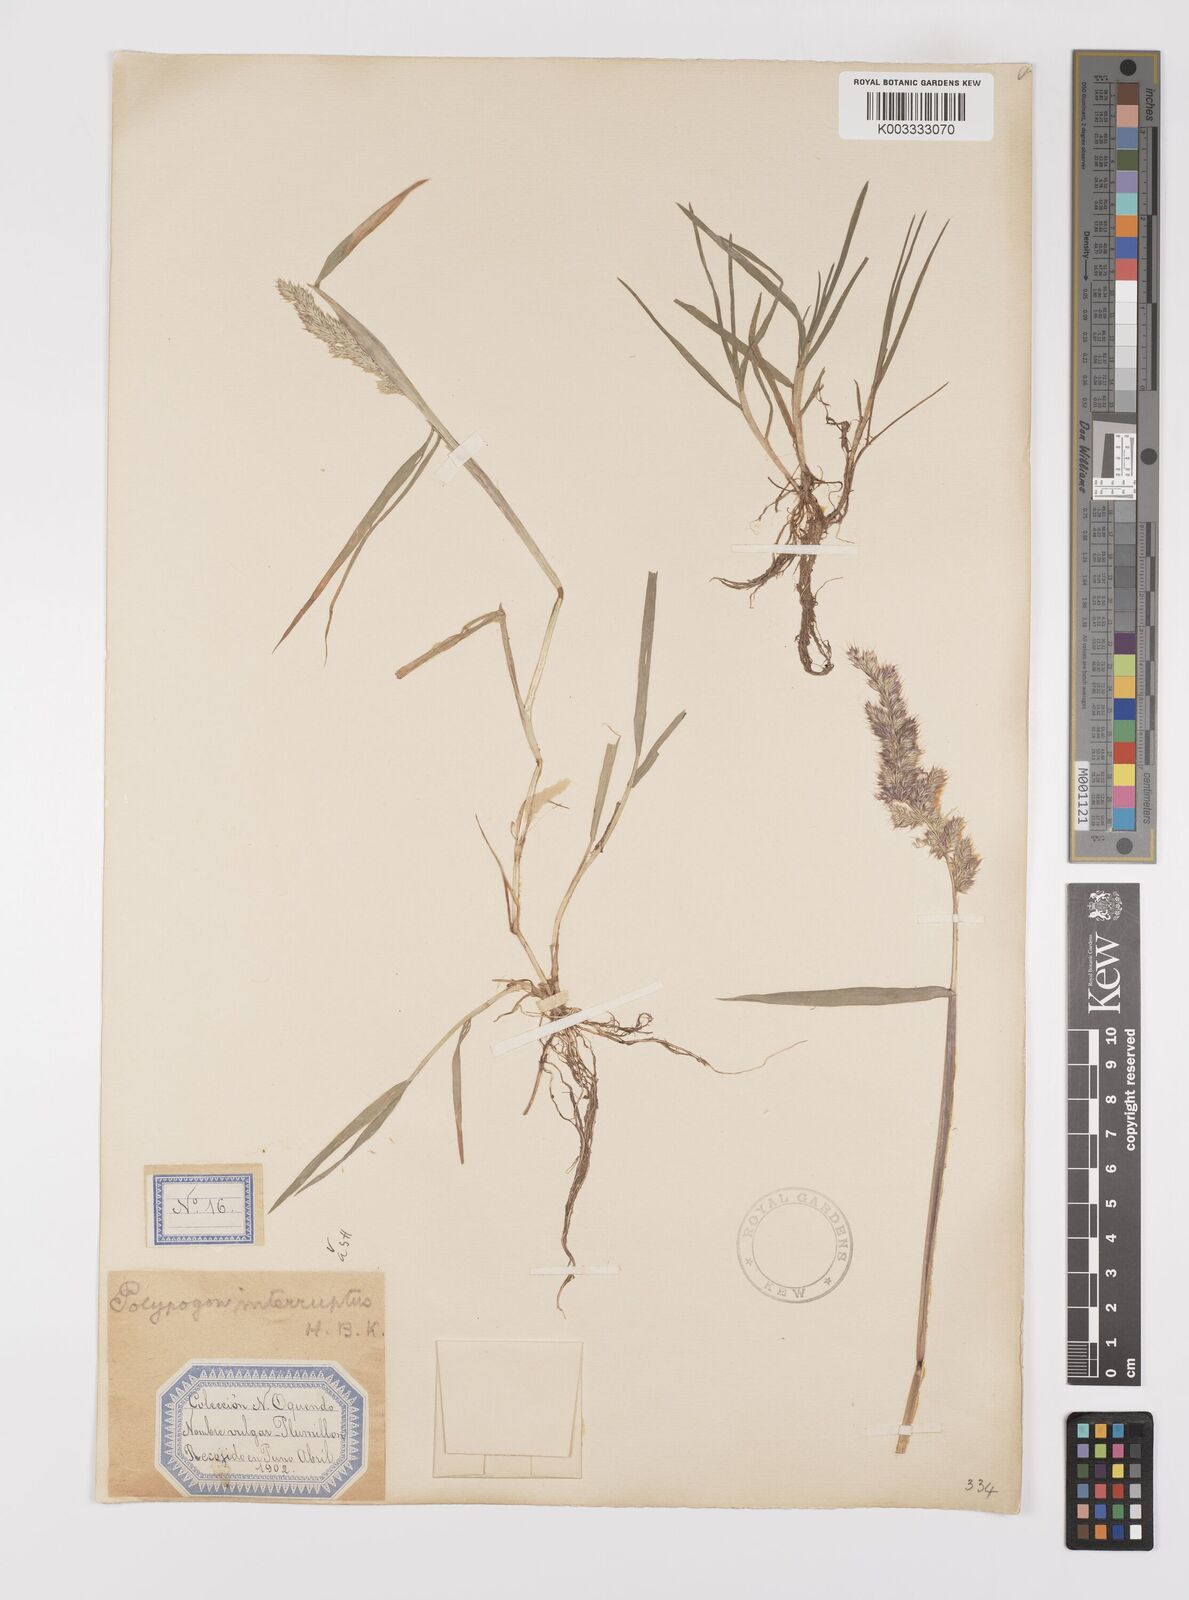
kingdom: Plantae
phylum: Tracheophyta
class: Liliopsida
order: Poales
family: Poaceae
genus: Polypogon
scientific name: Polypogon interruptus
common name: Ditch polypogon
